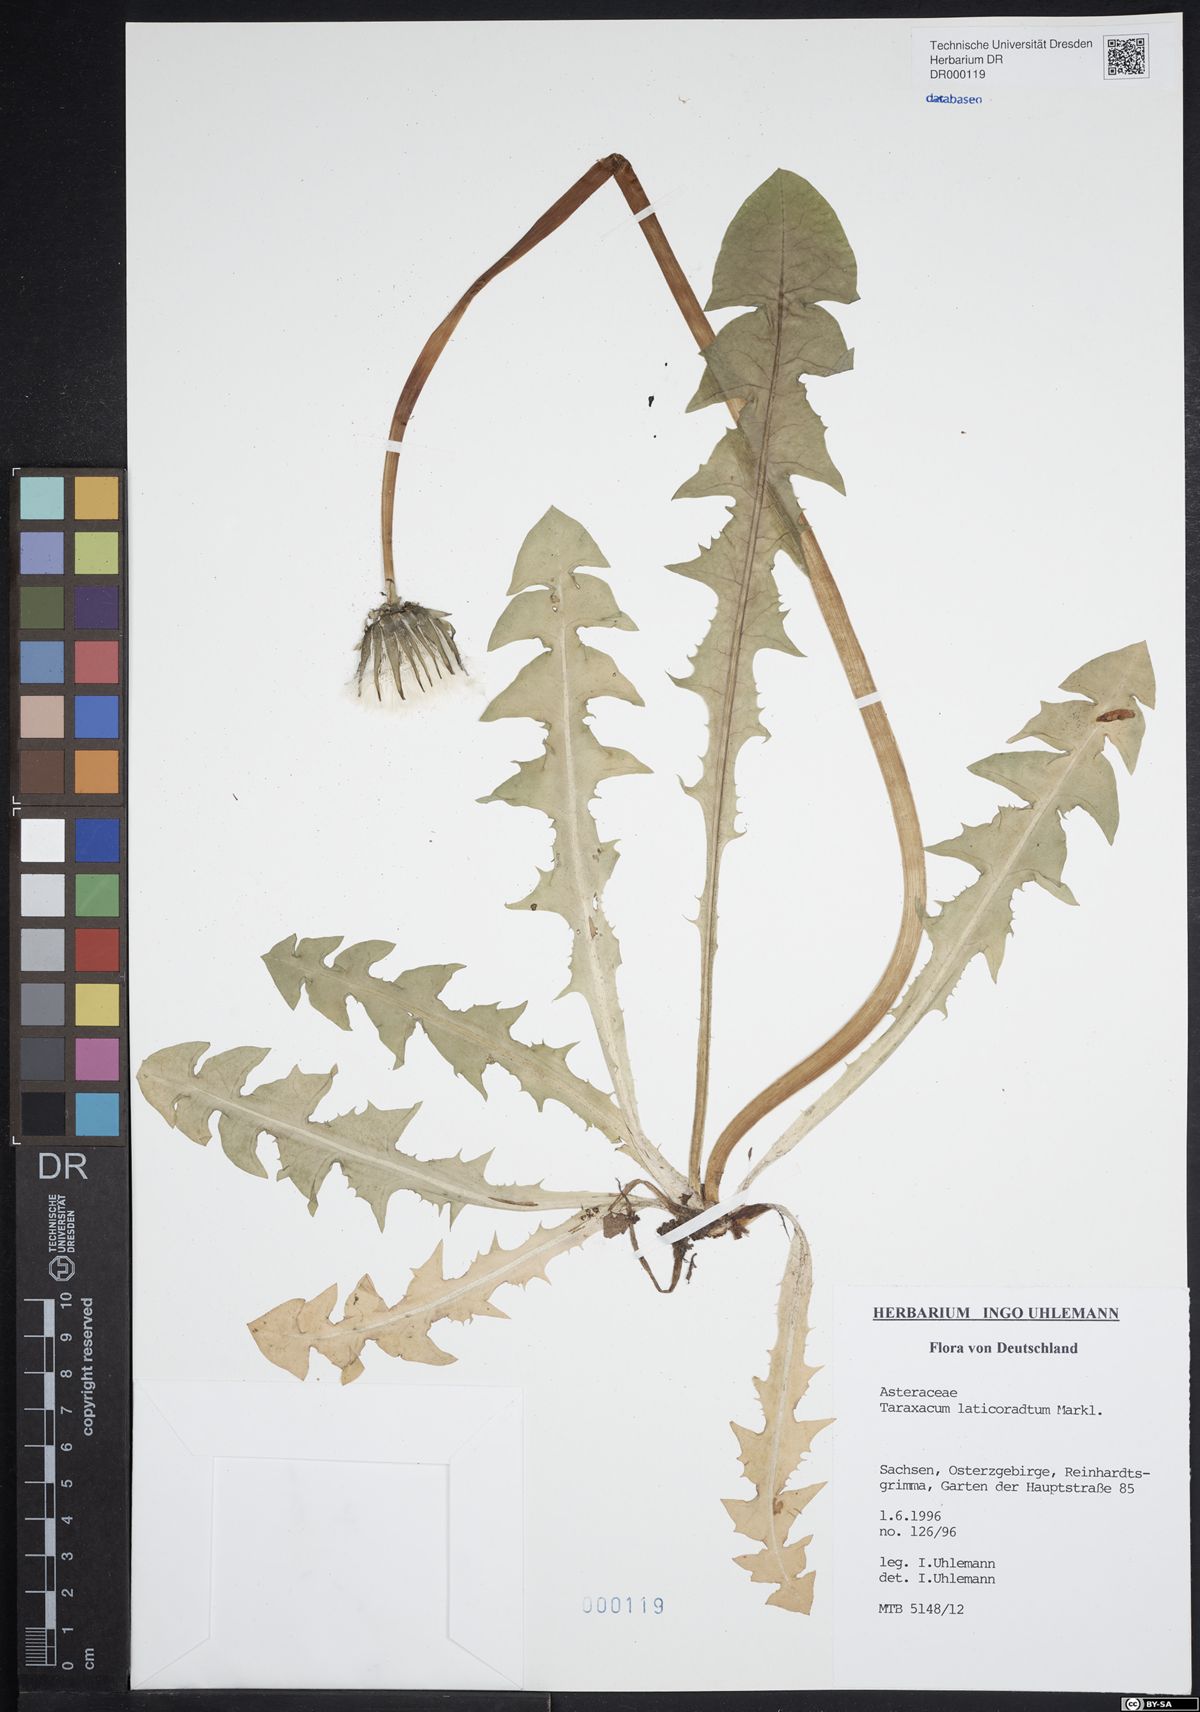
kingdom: Plantae
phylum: Tracheophyta
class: Magnoliopsida
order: Asterales
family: Asteraceae
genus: Taraxacum
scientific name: Taraxacum laticordatum
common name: Decumbent dandelion
